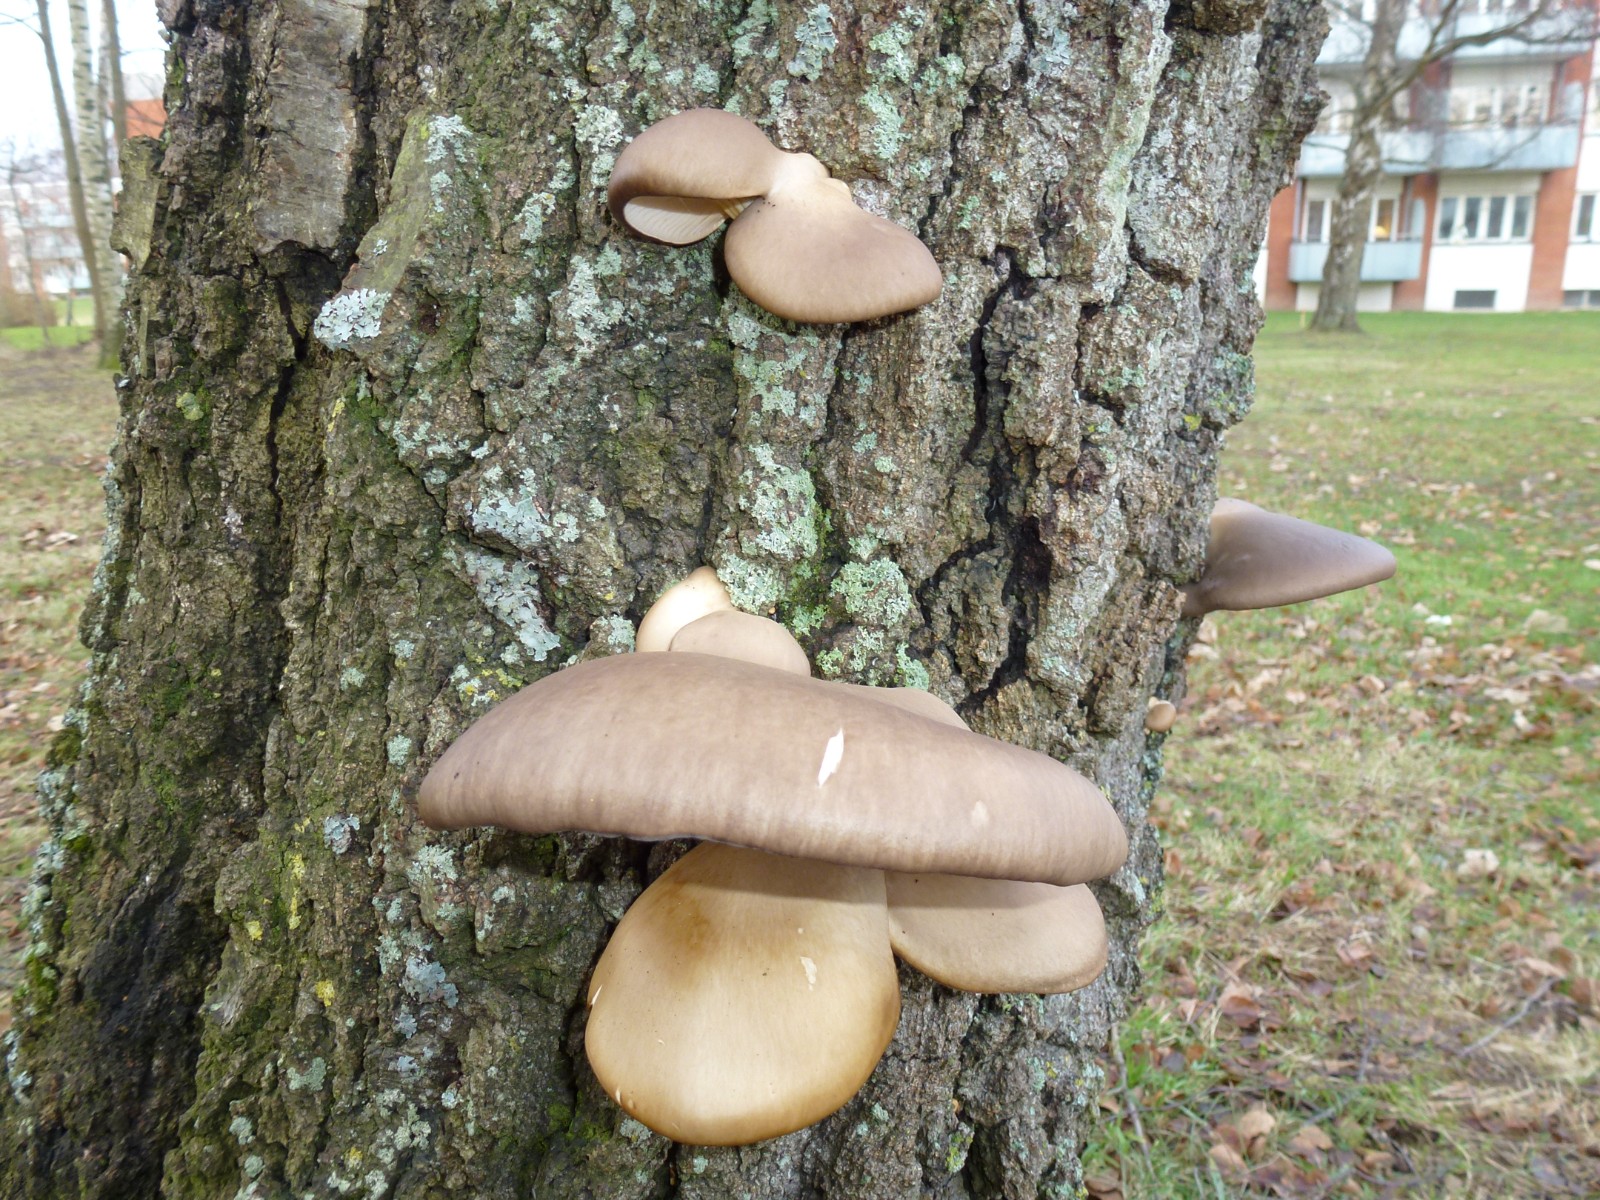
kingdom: Fungi
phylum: Basidiomycota
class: Agaricomycetes
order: Agaricales
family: Pleurotaceae
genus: Pleurotus
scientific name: Pleurotus ostreatus
